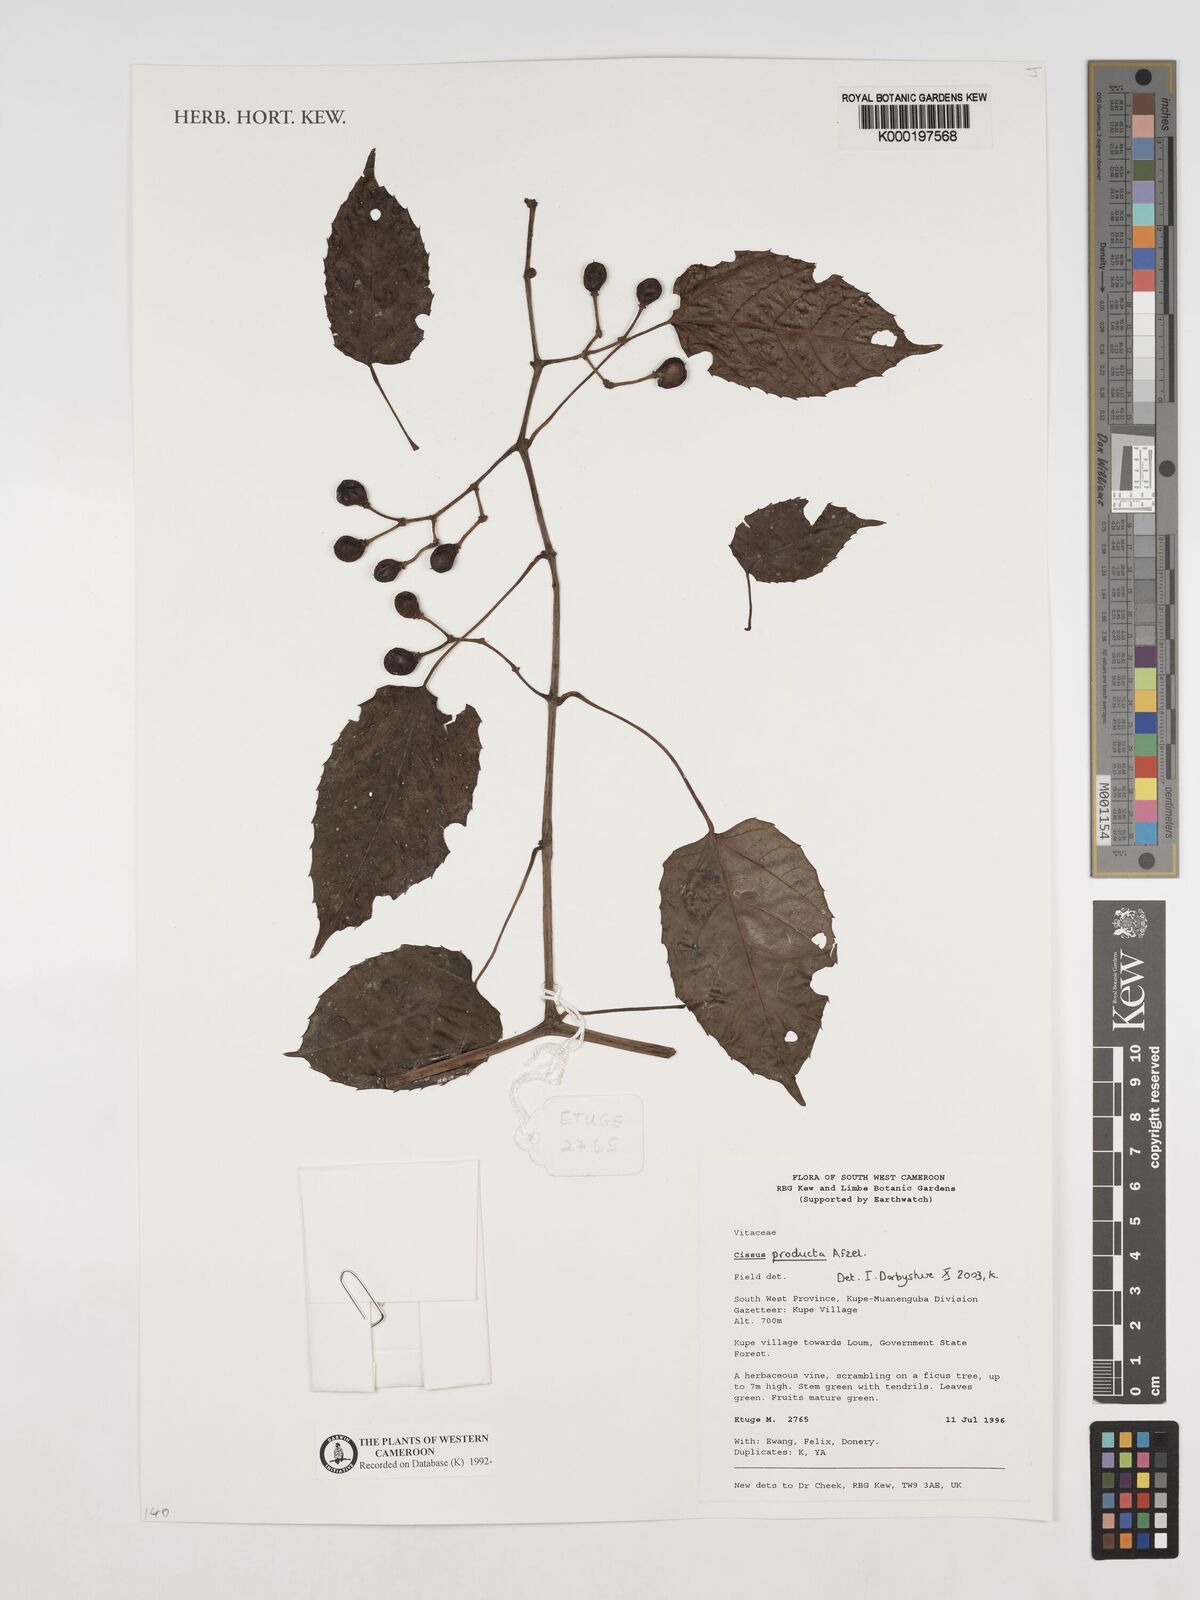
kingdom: Plantae
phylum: Tracheophyta
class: Magnoliopsida
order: Vitales
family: Vitaceae
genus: Cissus
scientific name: Cissus producta
